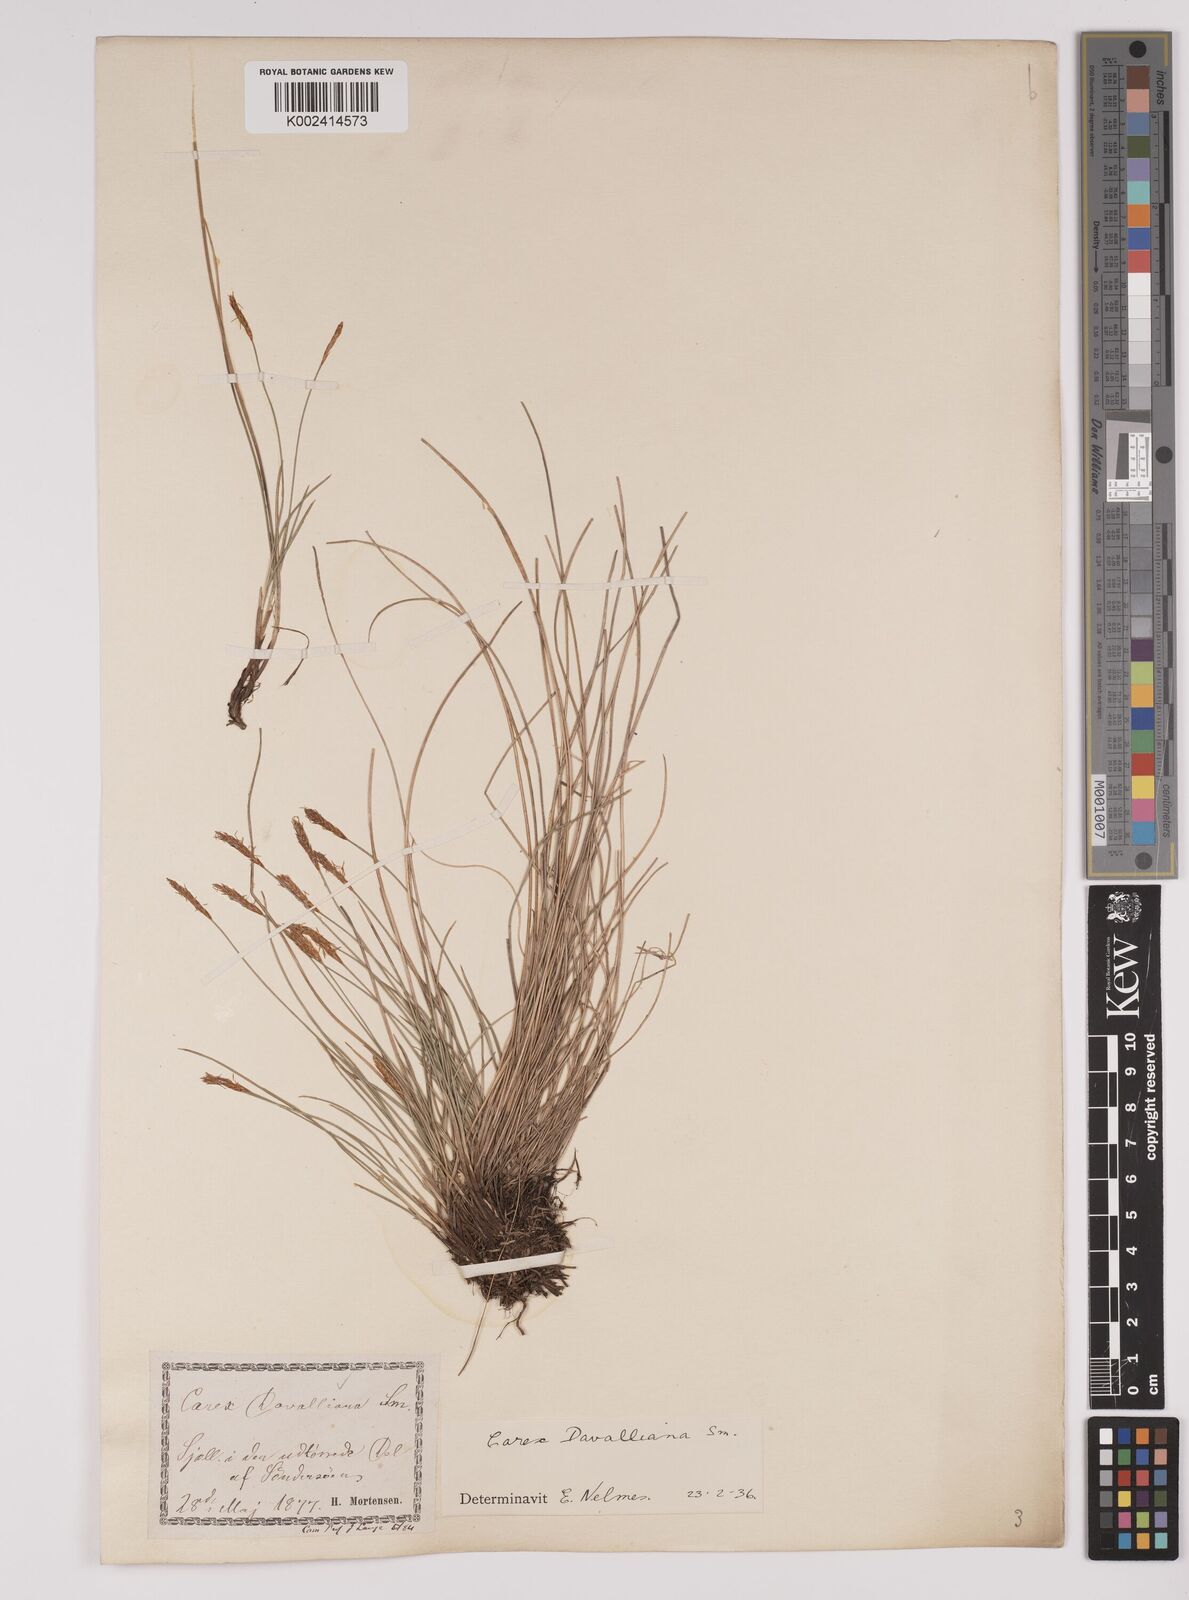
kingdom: Plantae
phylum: Tracheophyta
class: Liliopsida
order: Poales
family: Cyperaceae
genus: Carex
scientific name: Carex davalliana
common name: Davall's sedge
